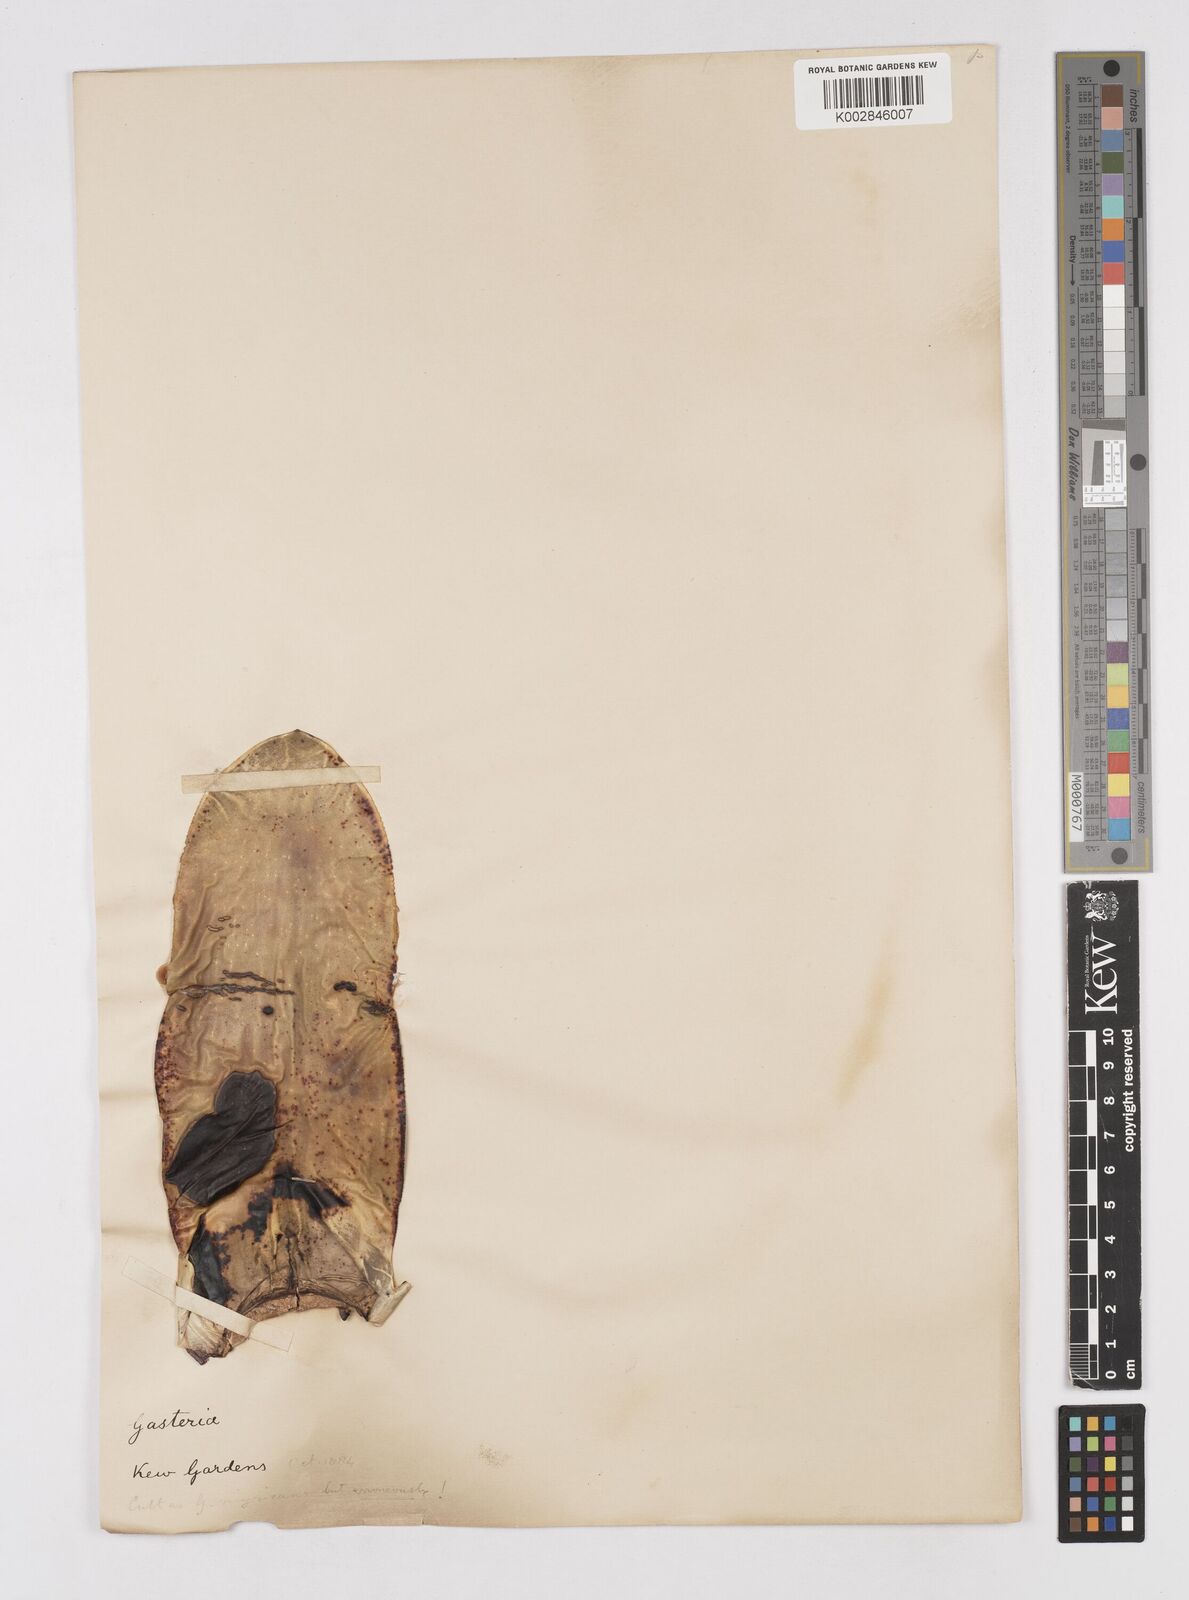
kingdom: Plantae
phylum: Tracheophyta
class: Liliopsida
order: Asparagales
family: Asphodelaceae
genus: Gasteria
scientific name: Gasteria obliqua
